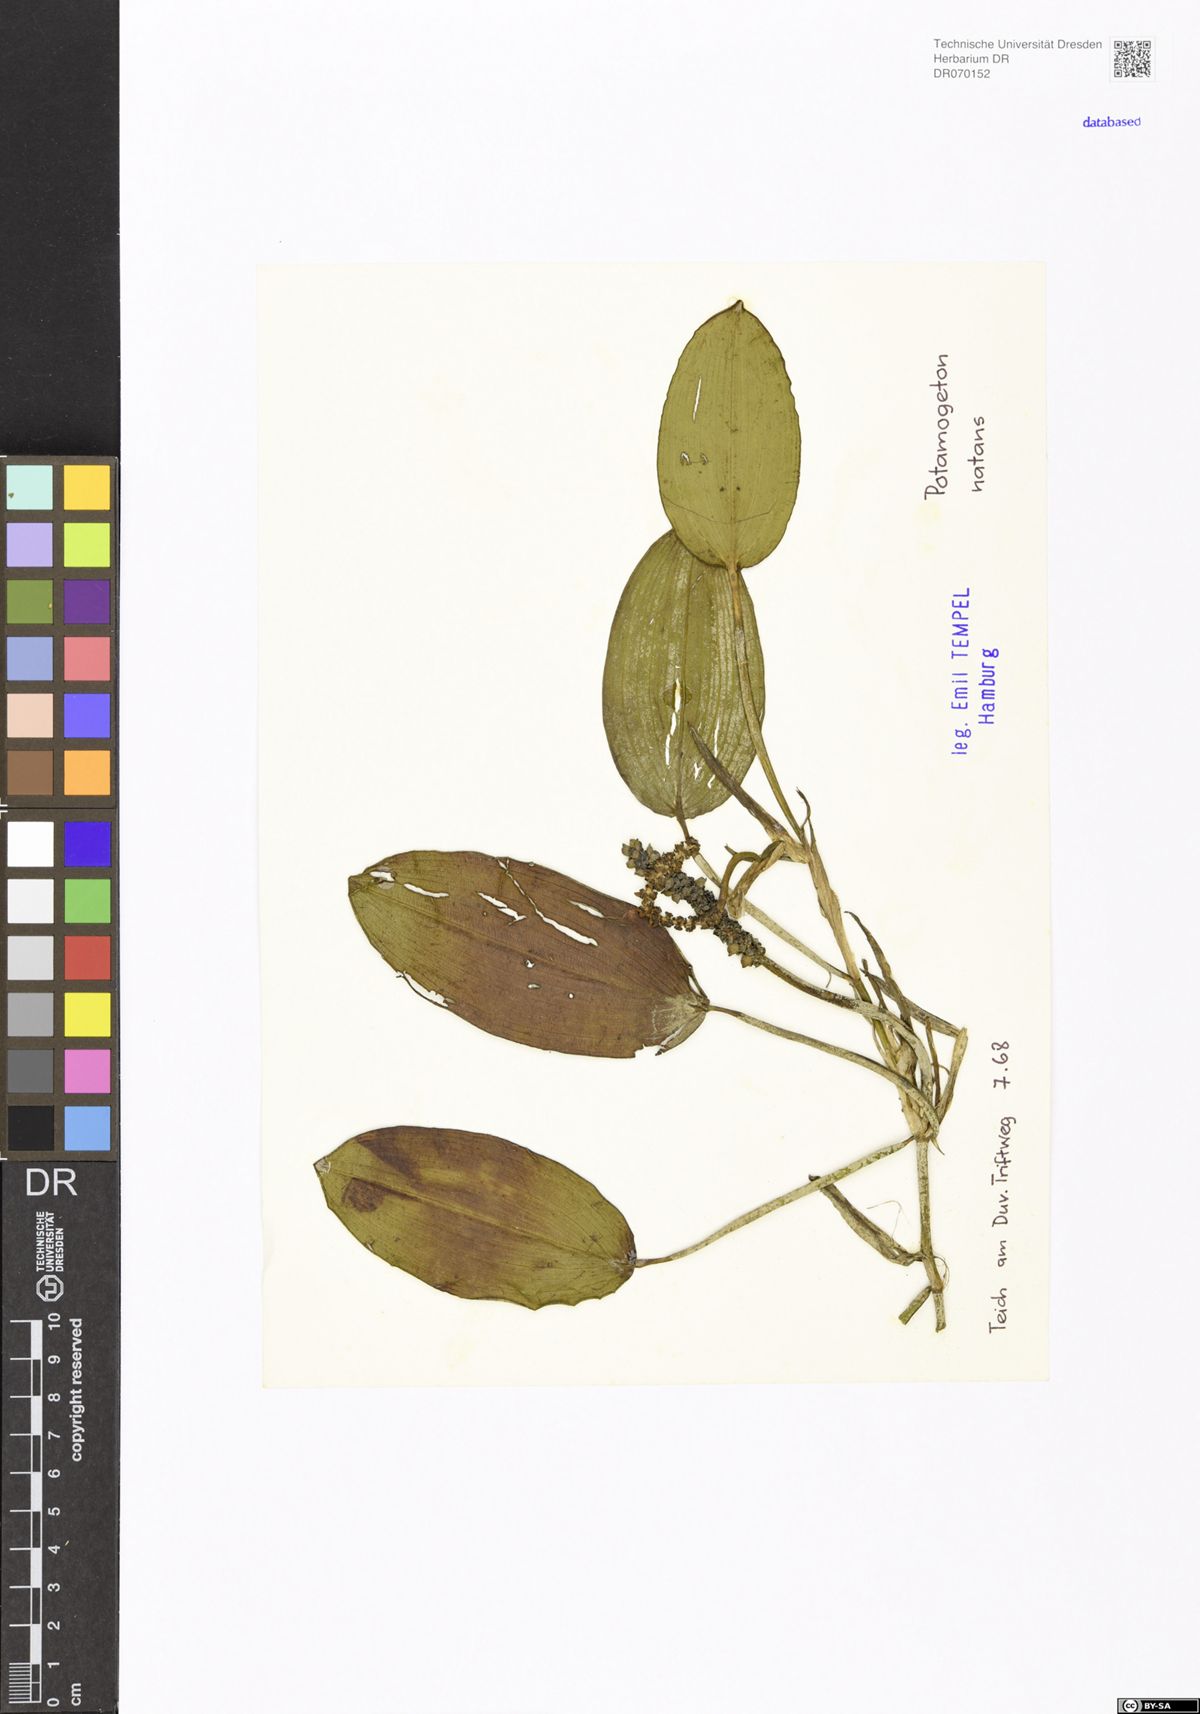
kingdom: Plantae
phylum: Tracheophyta
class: Liliopsida
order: Alismatales
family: Potamogetonaceae
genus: Potamogeton
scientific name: Potamogeton natans
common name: Broad-leaved pondweed
